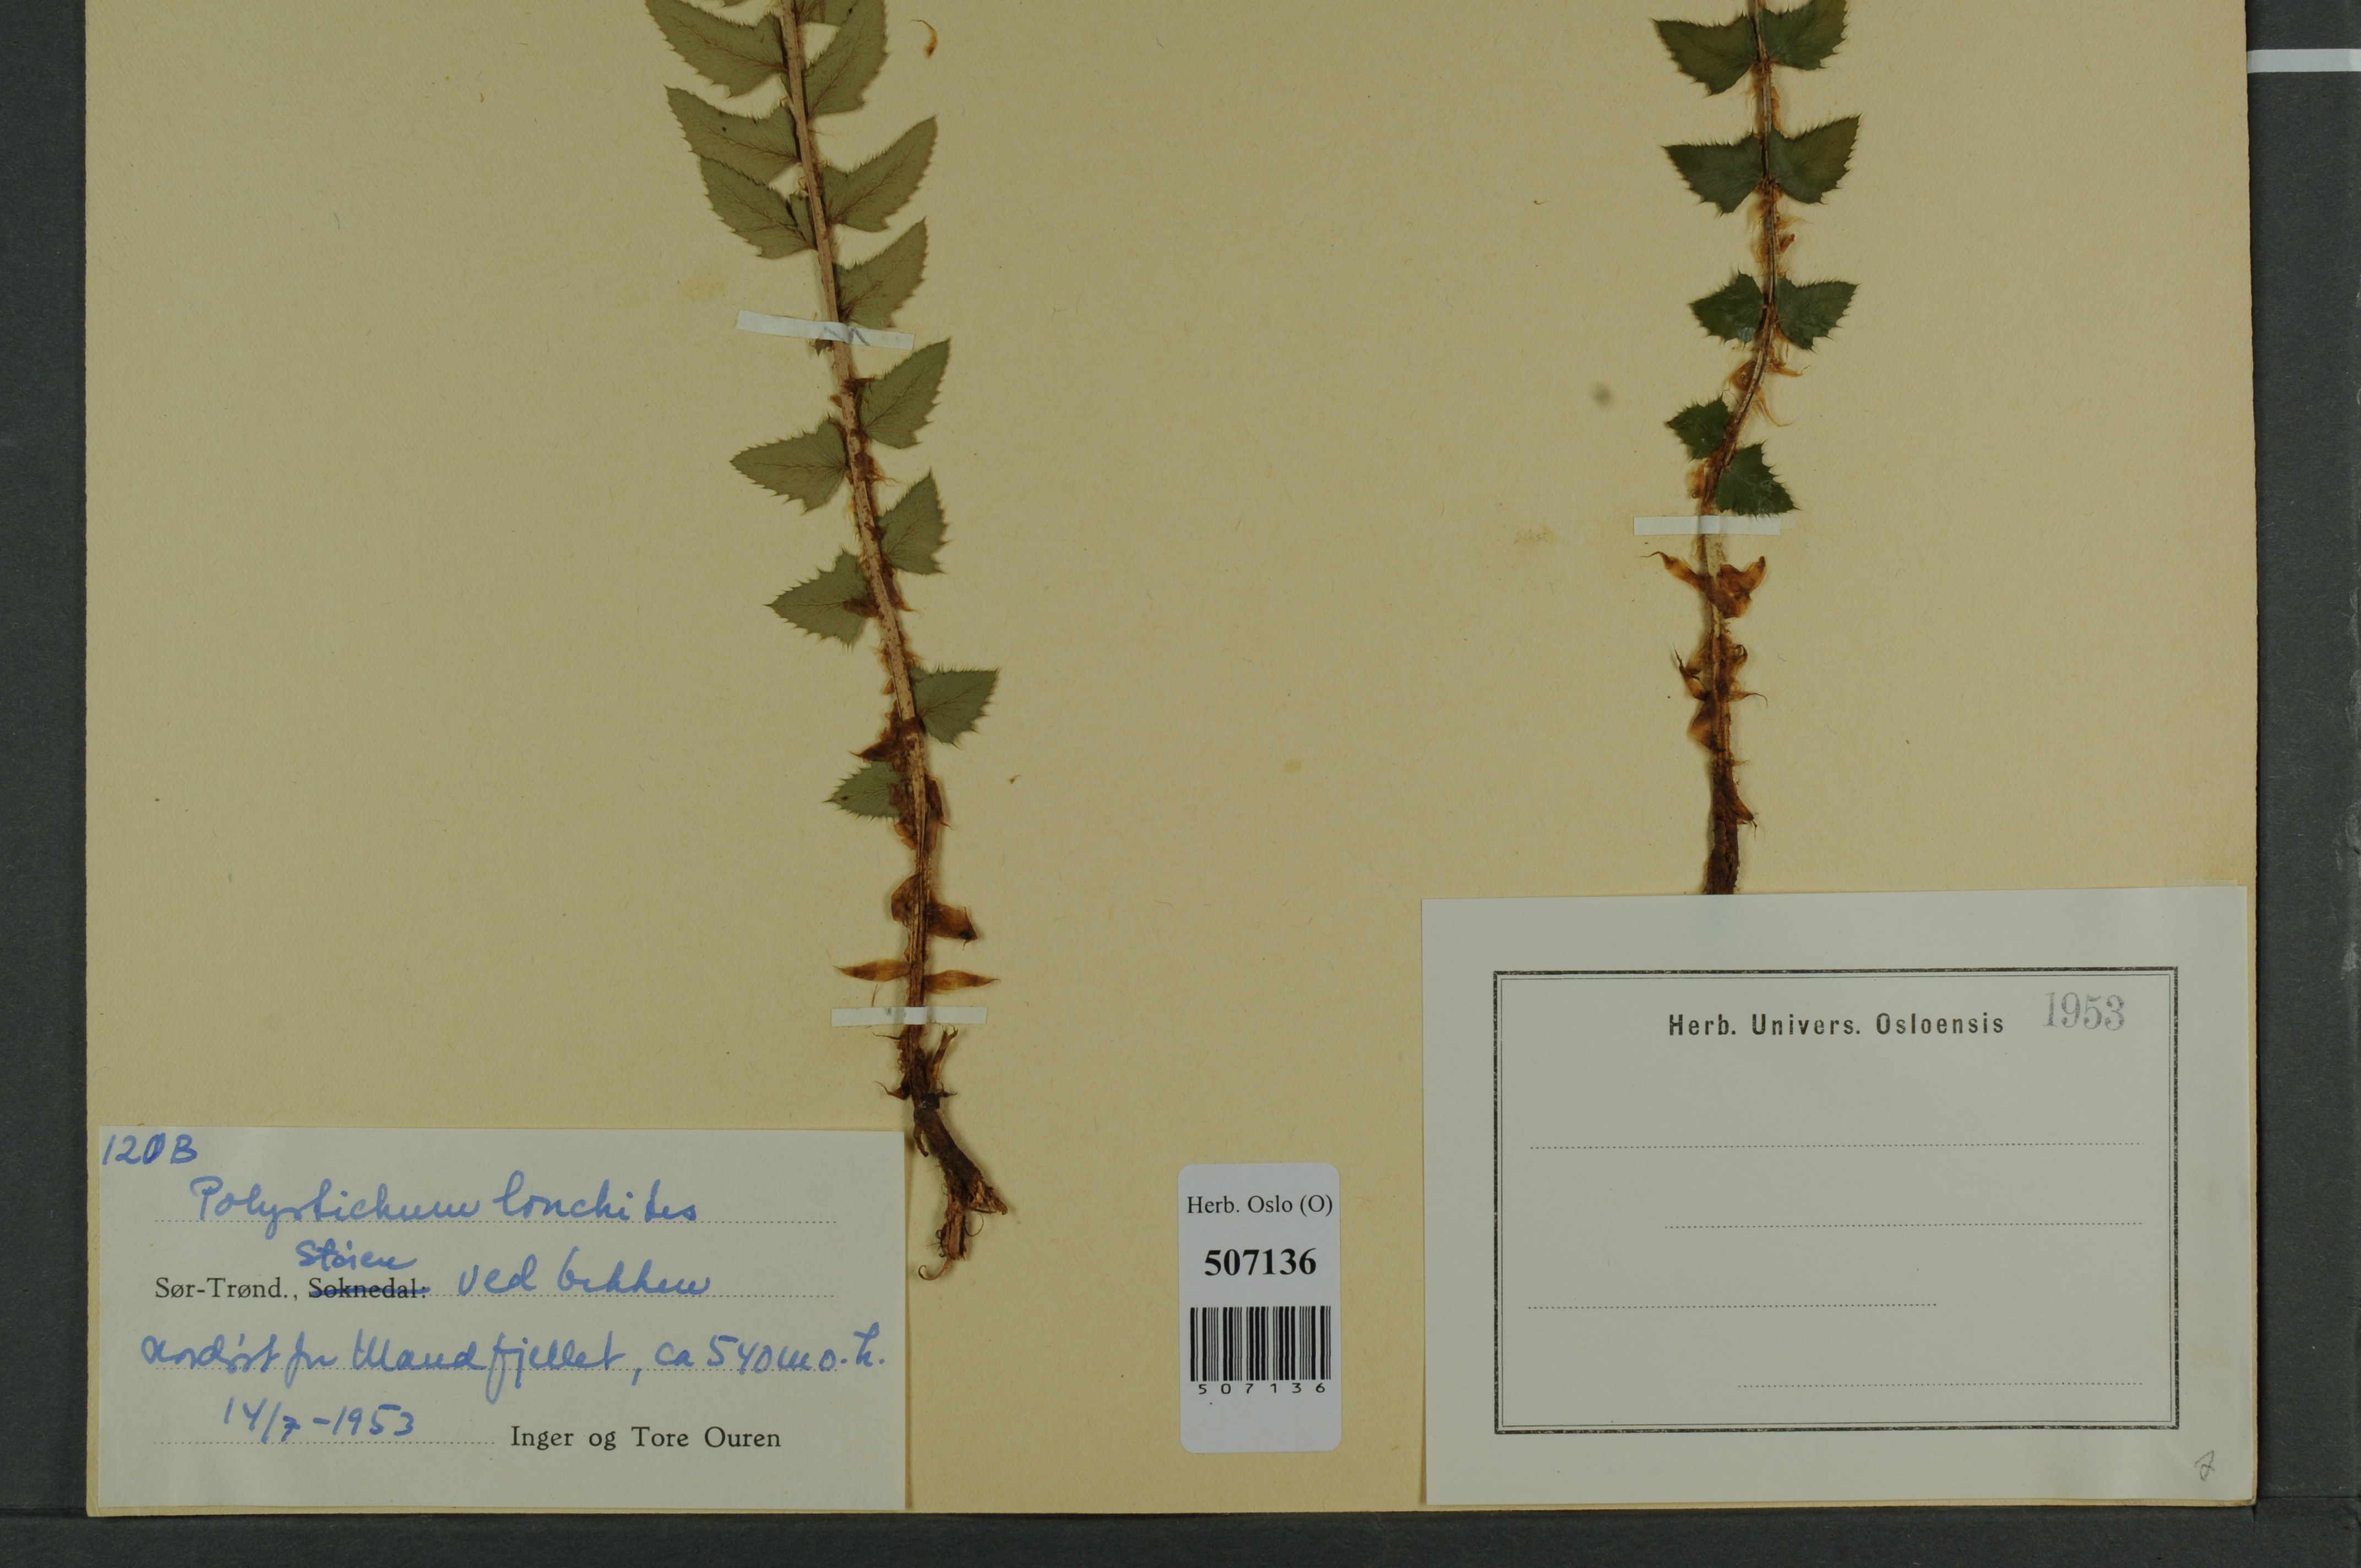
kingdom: Plantae
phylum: Tracheophyta
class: Polypodiopsida
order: Polypodiales
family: Dryopteridaceae
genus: Polystichum
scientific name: Polystichum lonchitis
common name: Holly fern
